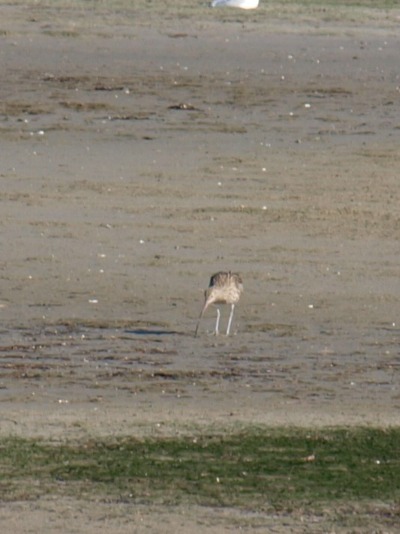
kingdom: Animalia
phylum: Chordata
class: Aves
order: Charadriiformes
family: Scolopacidae
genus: Numenius
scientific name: Numenius arquata
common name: Storspove
